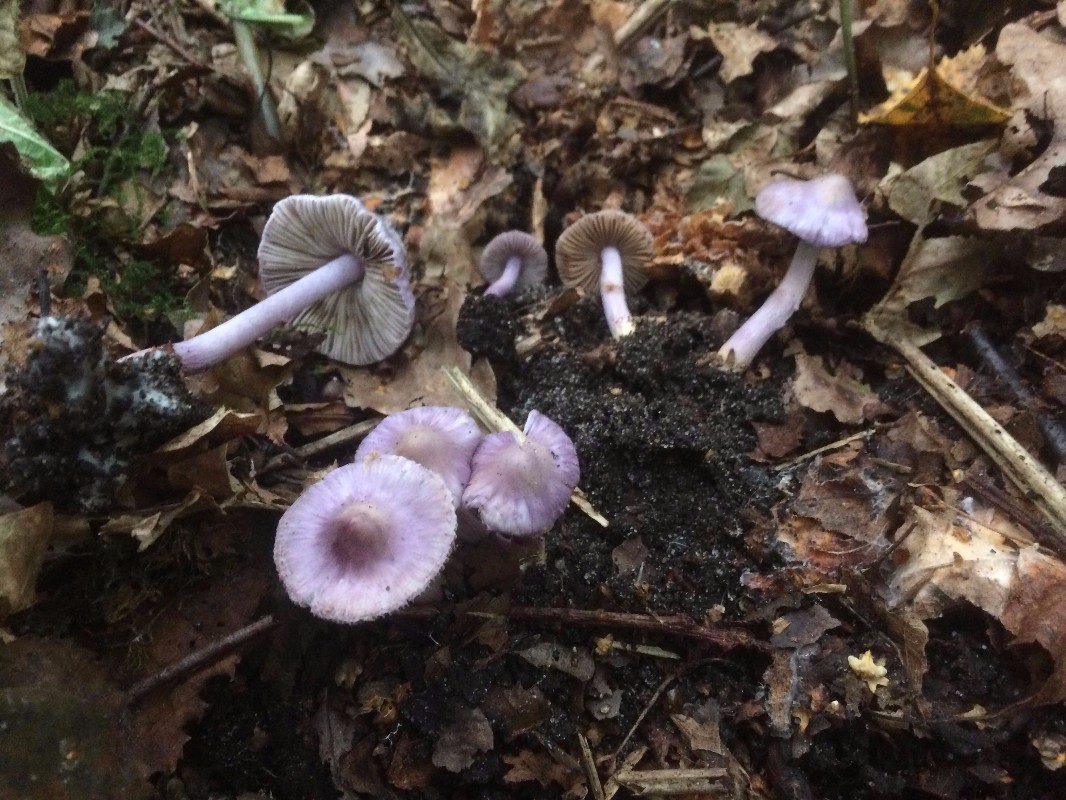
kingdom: Fungi
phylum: Basidiomycota
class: Agaricomycetes
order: Agaricales
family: Inocybaceae
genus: Inocybe
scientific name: Inocybe geophylla
